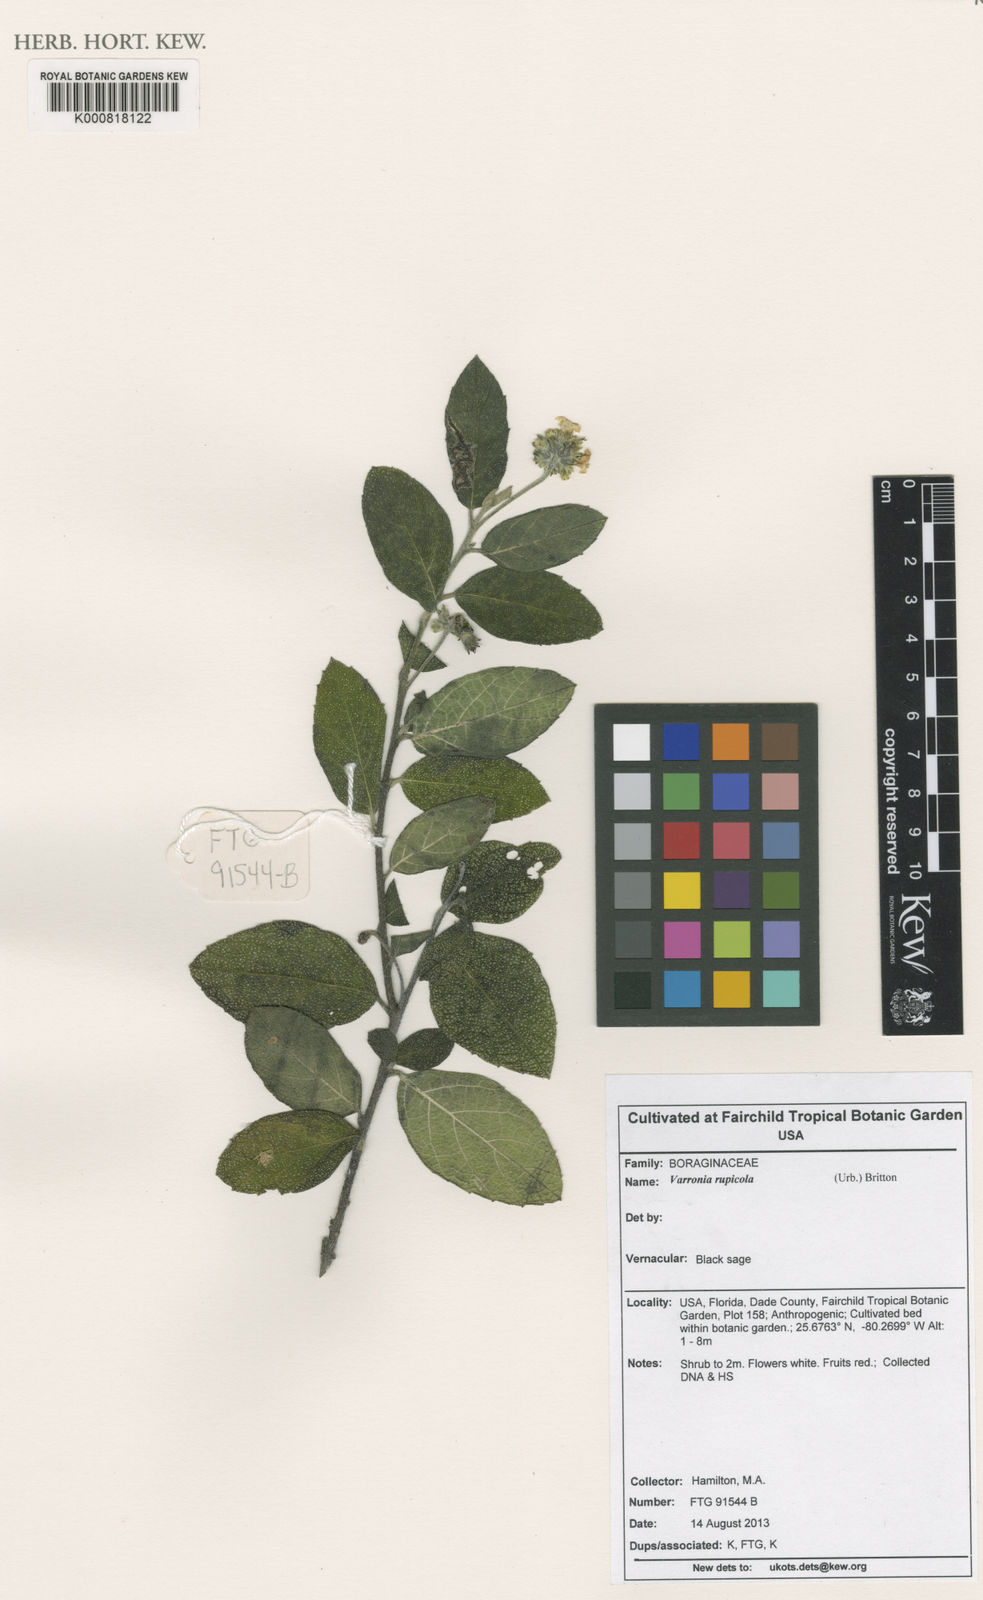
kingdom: Plantae
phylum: Tracheophyta
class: Magnoliopsida
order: Boraginales
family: Cordiaceae
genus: Varronia
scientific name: Varronia rupicola
